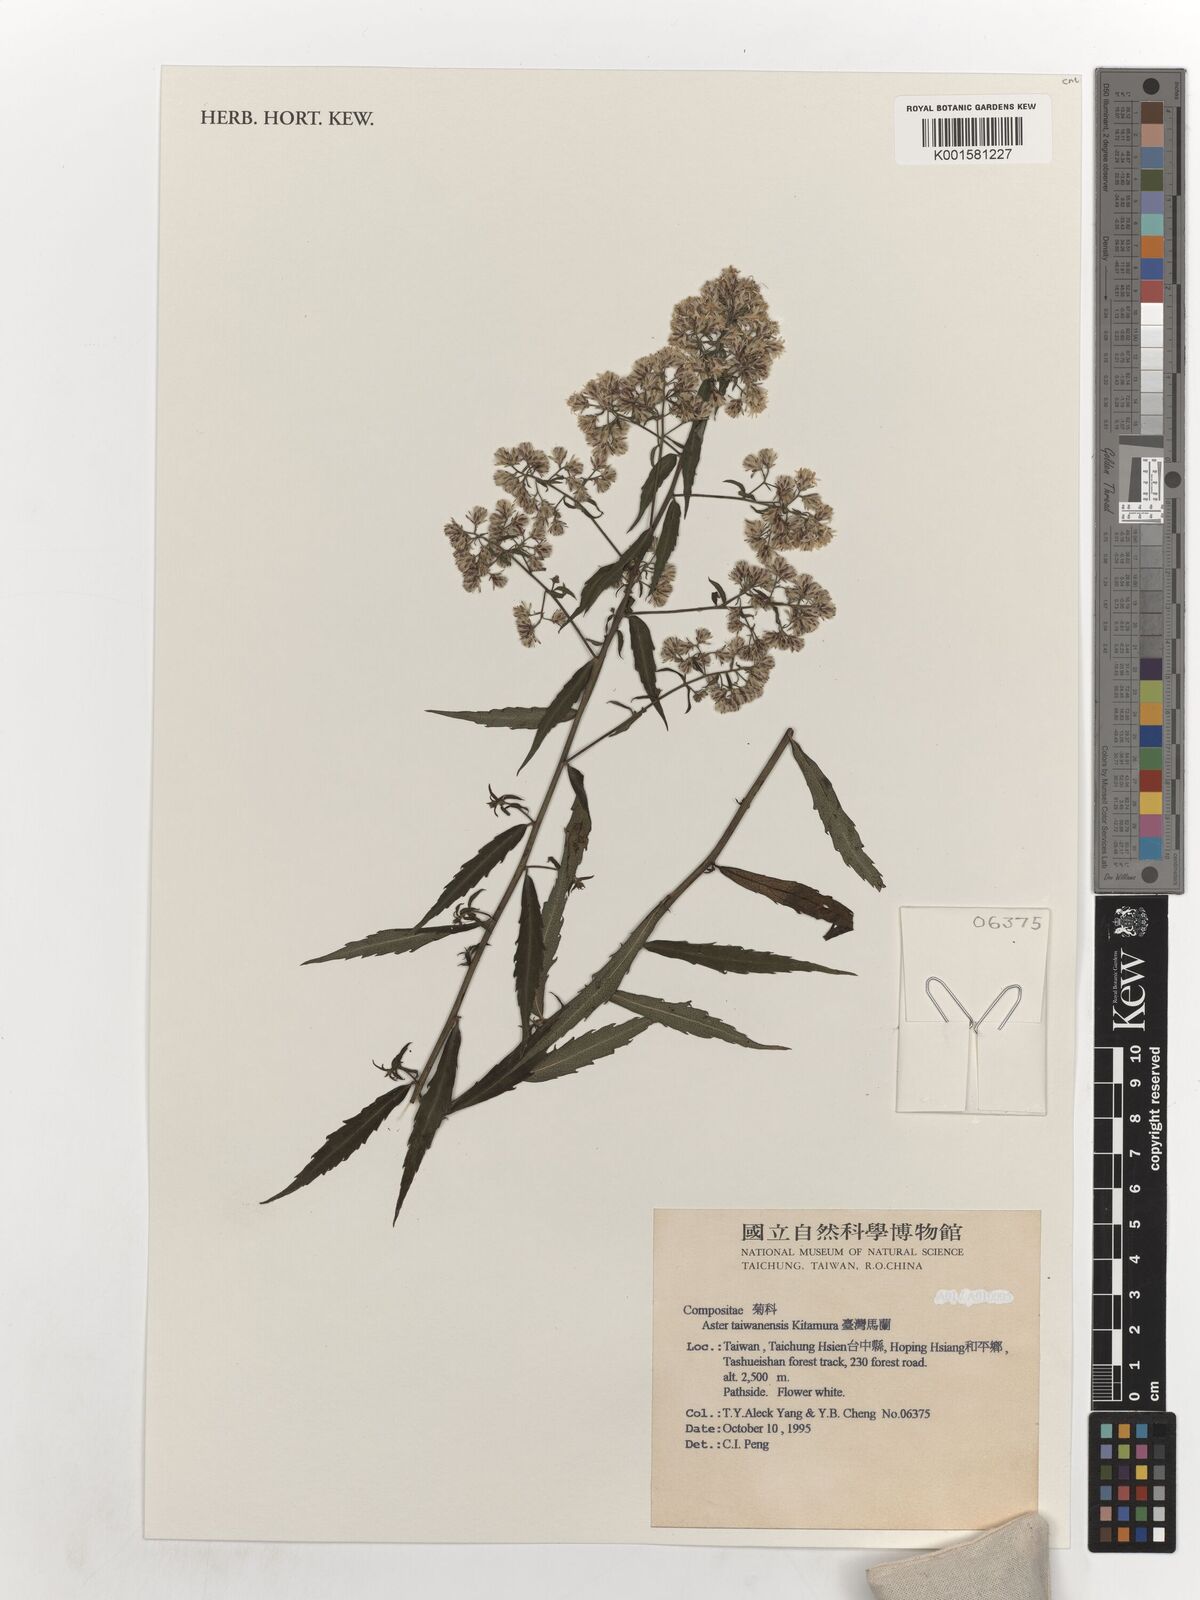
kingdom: Plantae
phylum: Tracheophyta
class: Magnoliopsida
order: Asterales
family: Asteraceae
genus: Aster
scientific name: Aster taiwanensis
